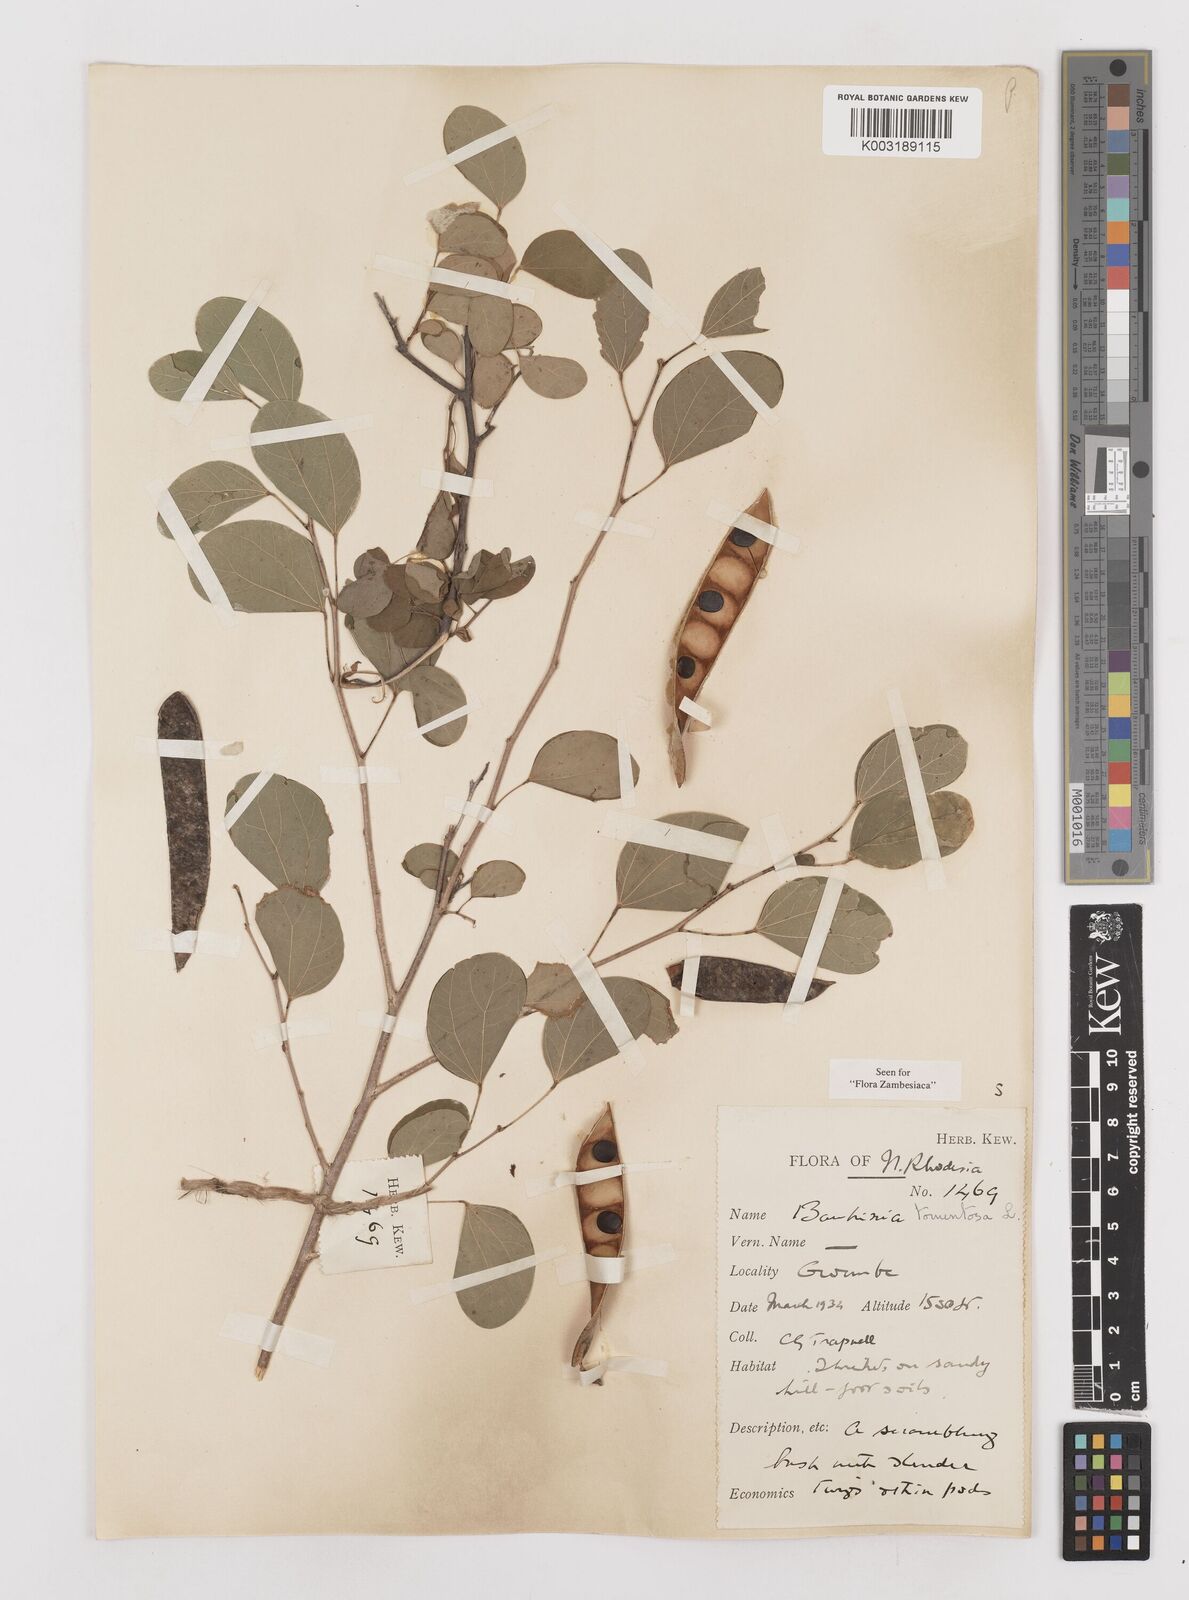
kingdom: Plantae
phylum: Tracheophyta
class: Magnoliopsida
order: Fabales
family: Fabaceae
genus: Bauhinia
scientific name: Bauhinia tomentosa
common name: Bell bauhinia
